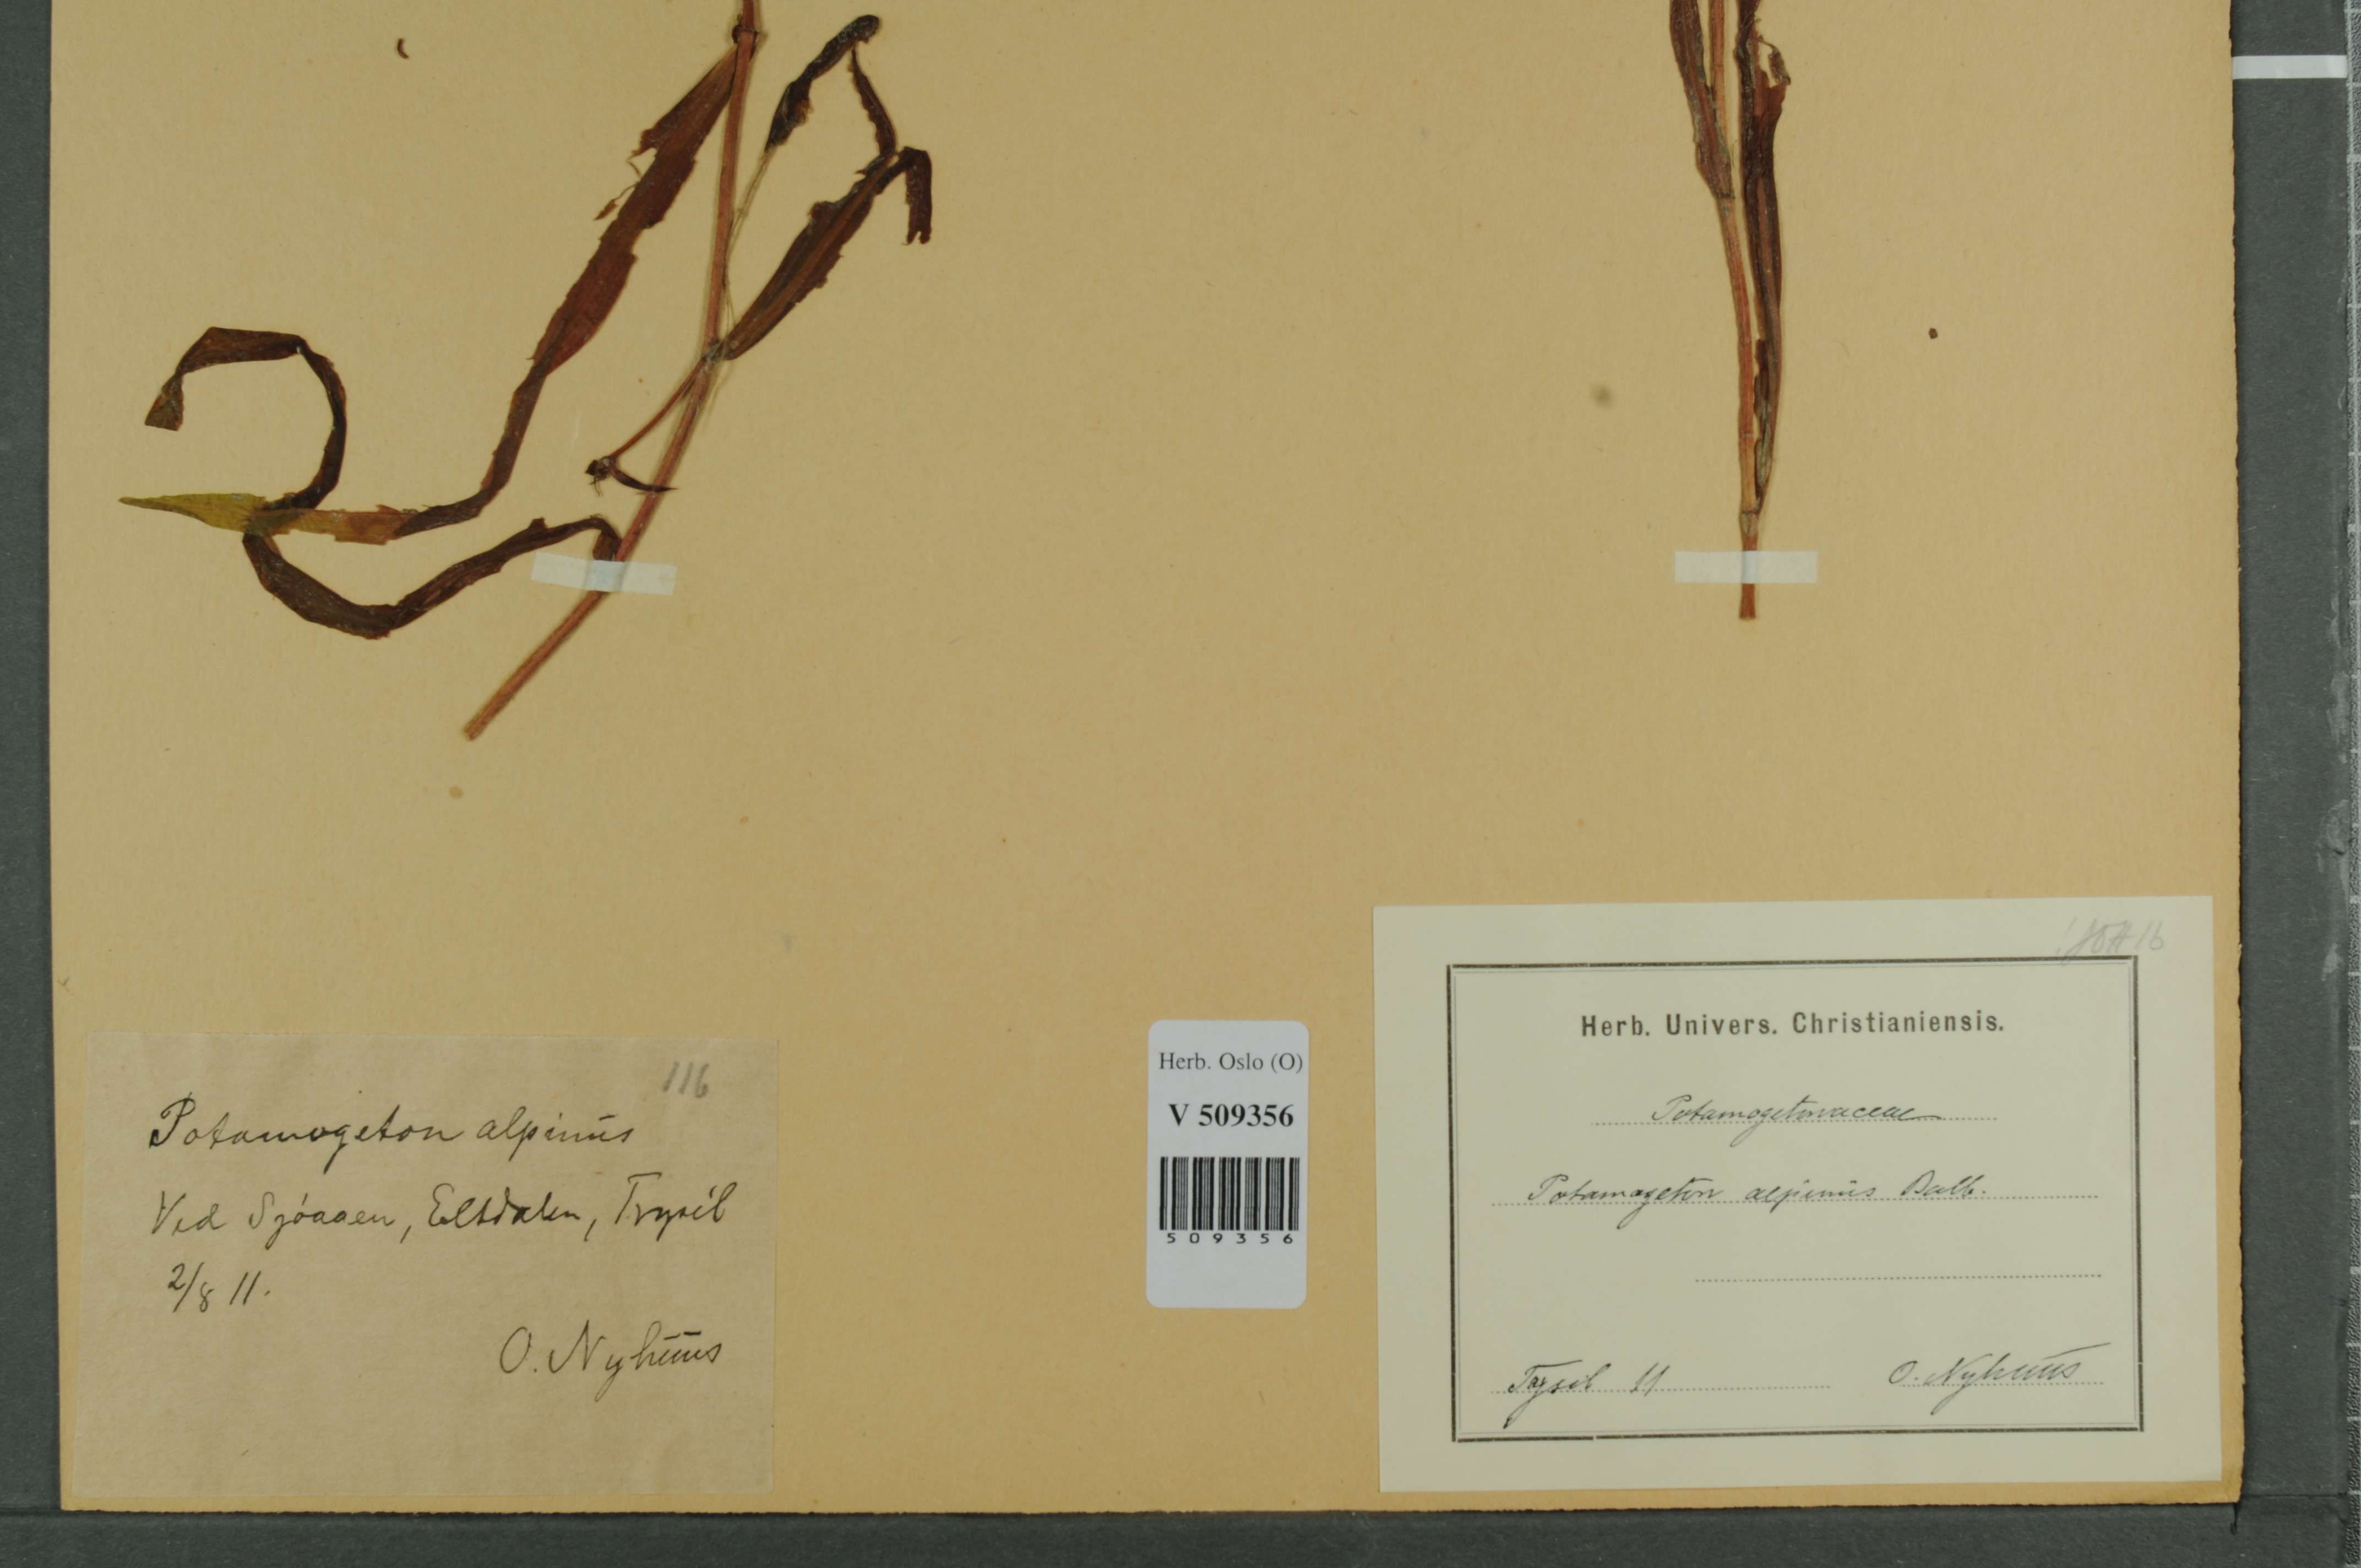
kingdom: Plantae
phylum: Tracheophyta
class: Liliopsida
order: Alismatales
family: Potamogetonaceae
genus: Potamogeton
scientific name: Potamogeton alpinus
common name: Red pondweed
